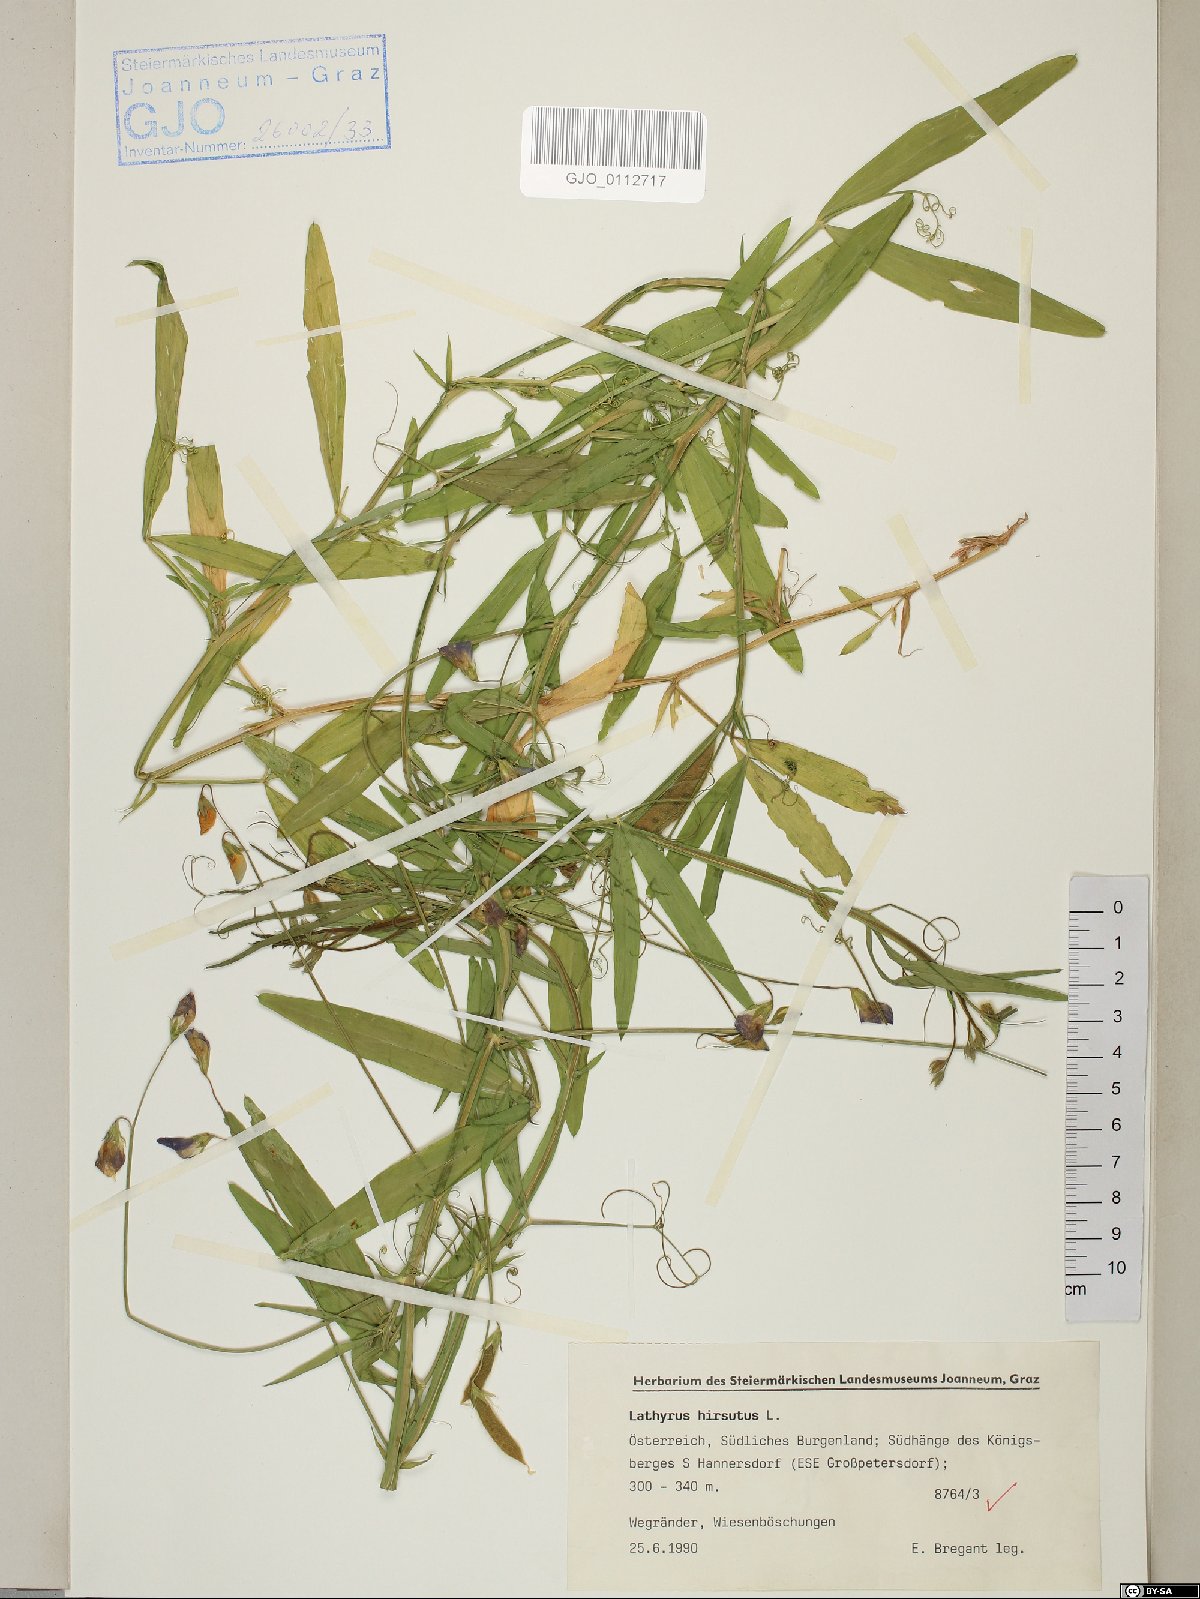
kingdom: Plantae
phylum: Tracheophyta
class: Magnoliopsida
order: Fabales
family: Fabaceae
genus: Lathyrus
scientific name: Lathyrus hirsutus
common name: Hairy vetchling
